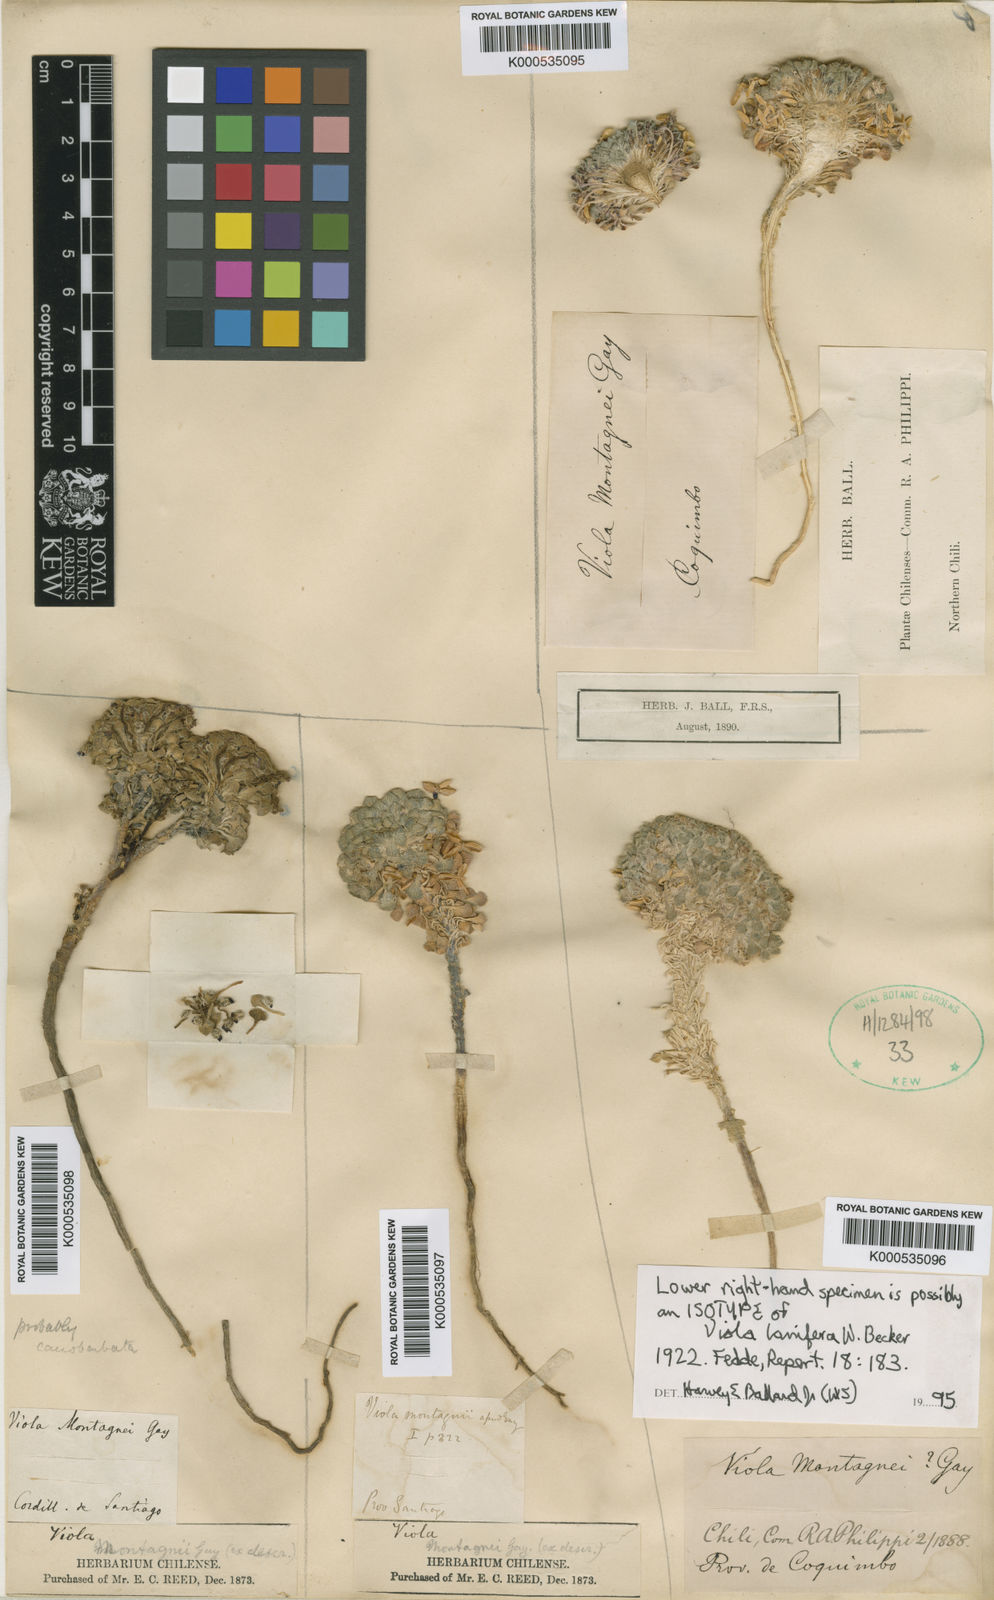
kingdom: Plantae
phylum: Tracheophyta
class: Magnoliopsida
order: Malpighiales
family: Violaceae
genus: Viola
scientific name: Viola montagnei
